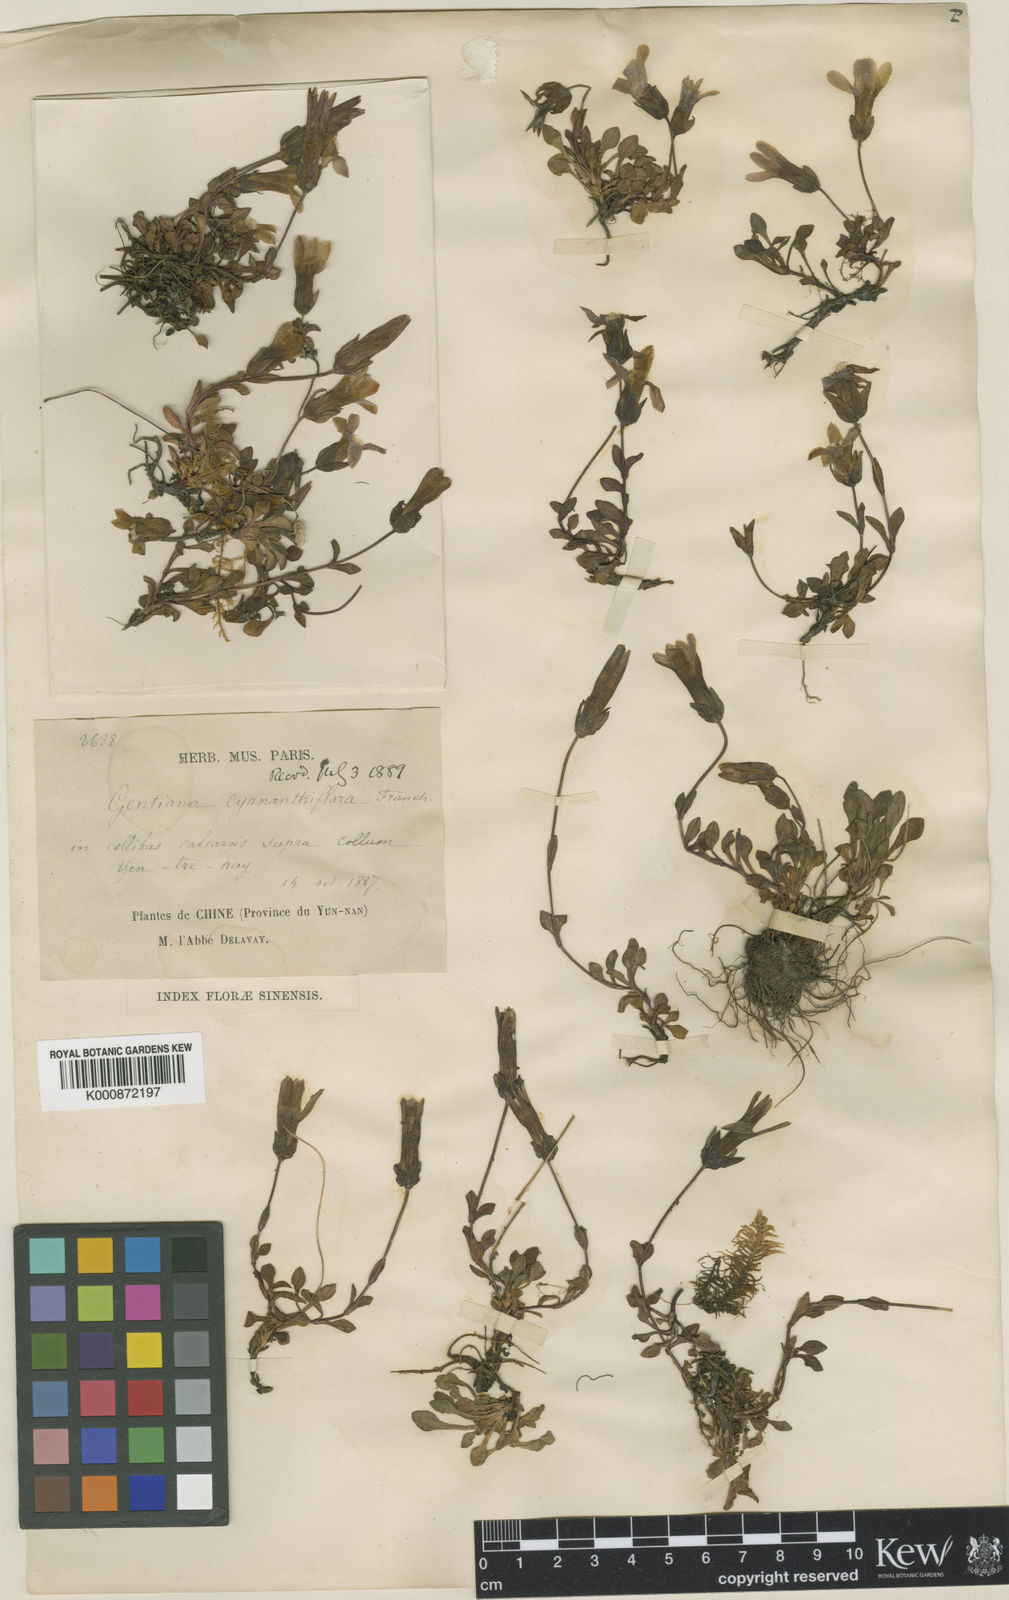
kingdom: Plantae
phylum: Tracheophyta
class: Magnoliopsida
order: Gentianales
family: Gentianaceae
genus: Comastoma
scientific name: Comastoma cyananthiflorum
